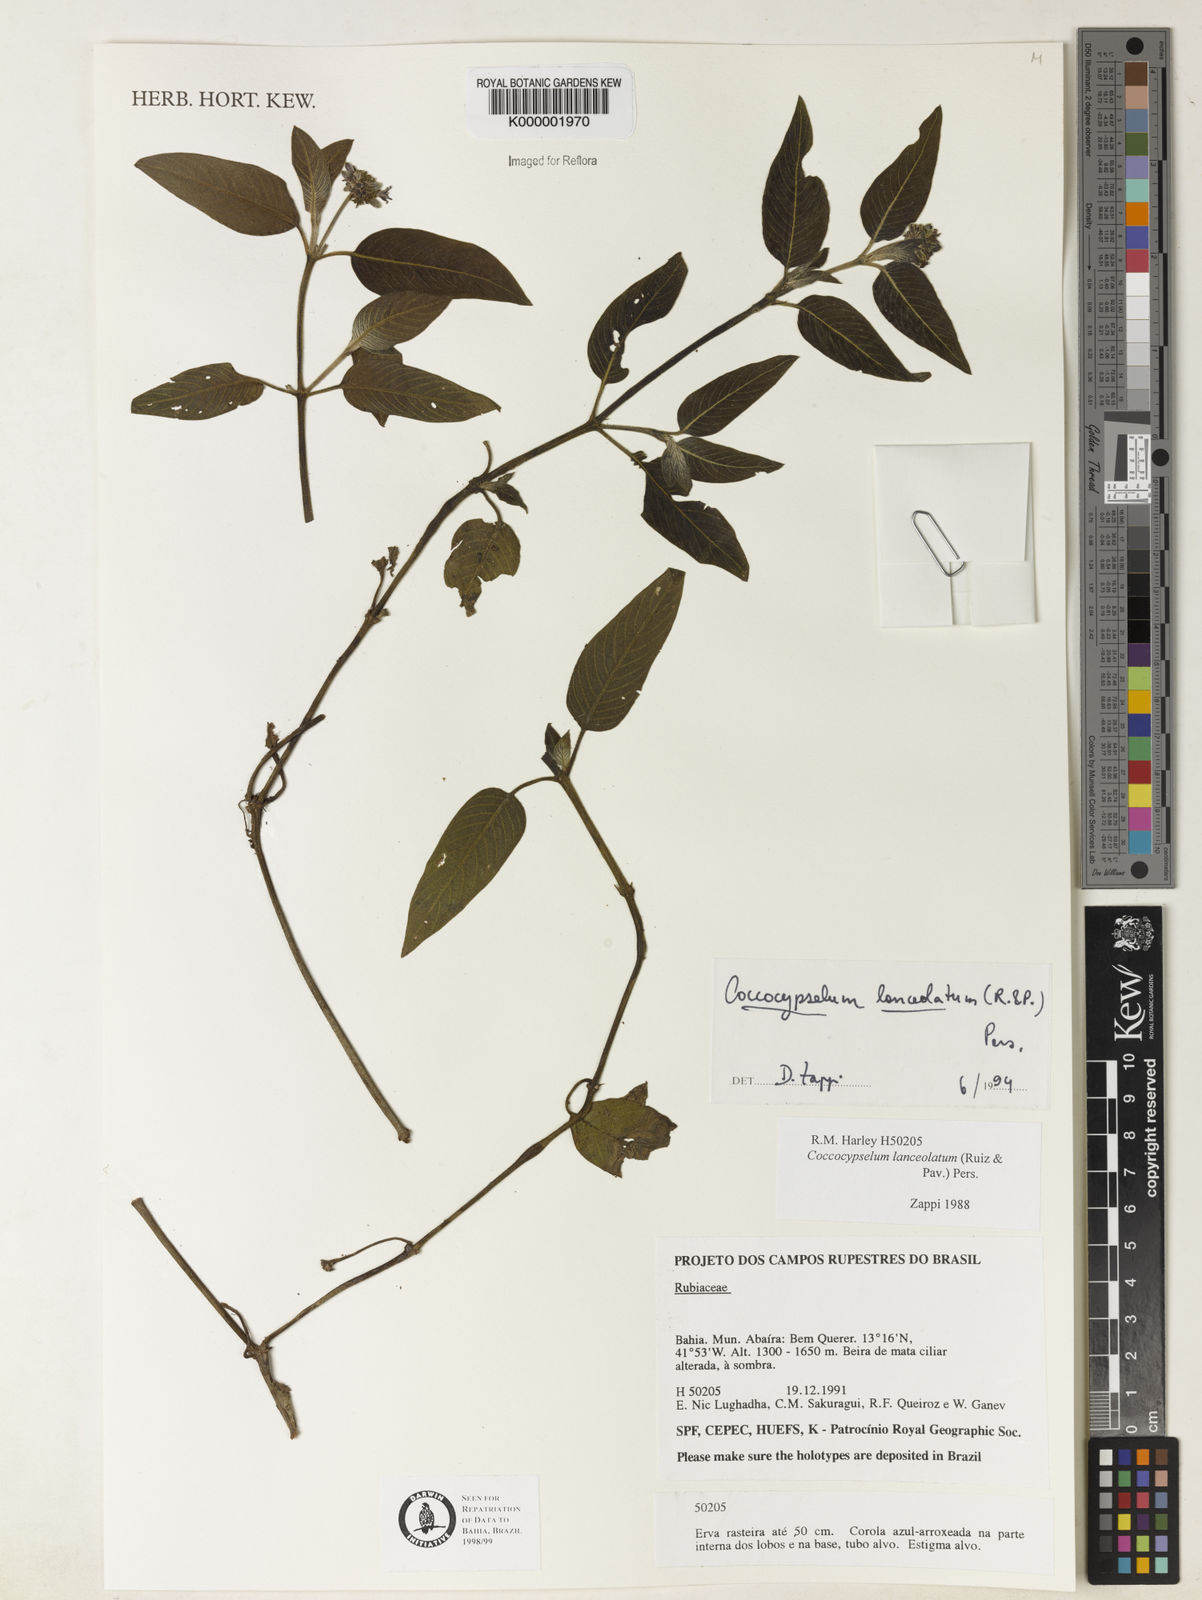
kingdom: Plantae
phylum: Tracheophyta
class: Magnoliopsida
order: Gentianales
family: Rubiaceae
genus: Coccocypselum
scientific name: Coccocypselum lanceolatum
